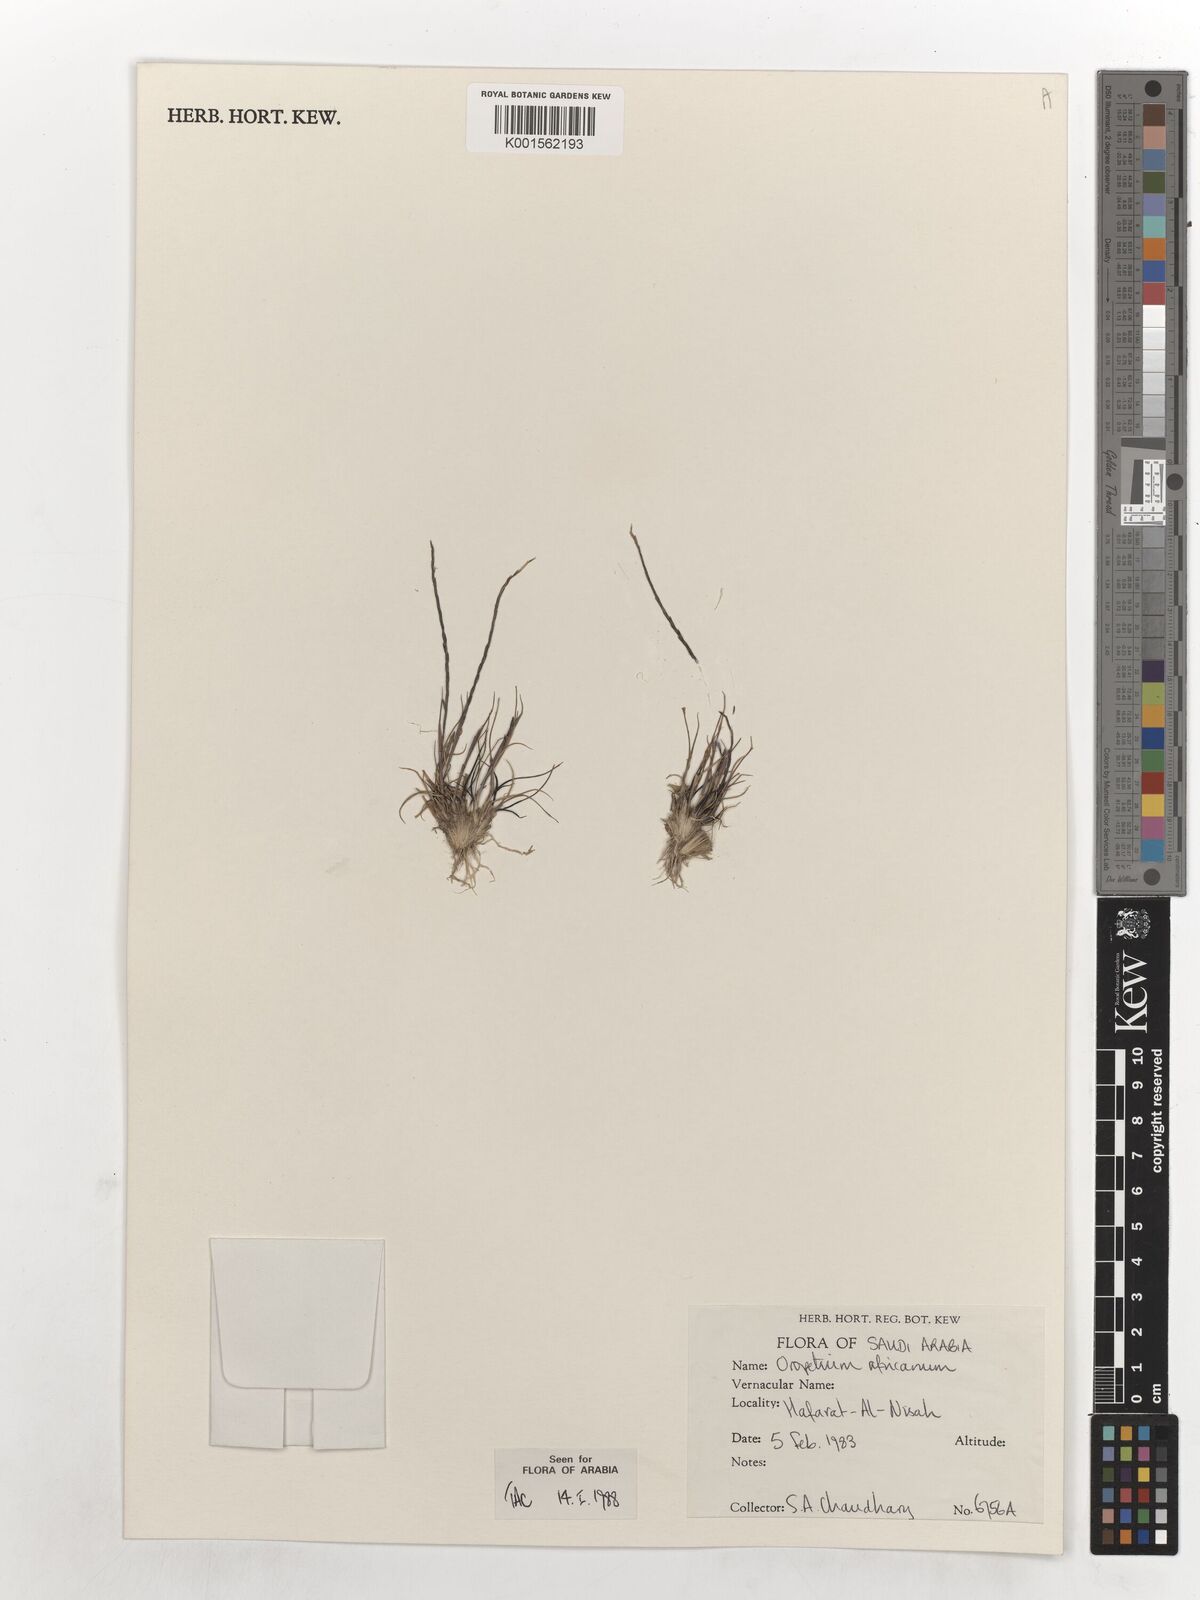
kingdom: Plantae
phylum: Tracheophyta
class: Liliopsida
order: Poales
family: Poaceae
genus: Tripogon
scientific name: Tripogon africanus
